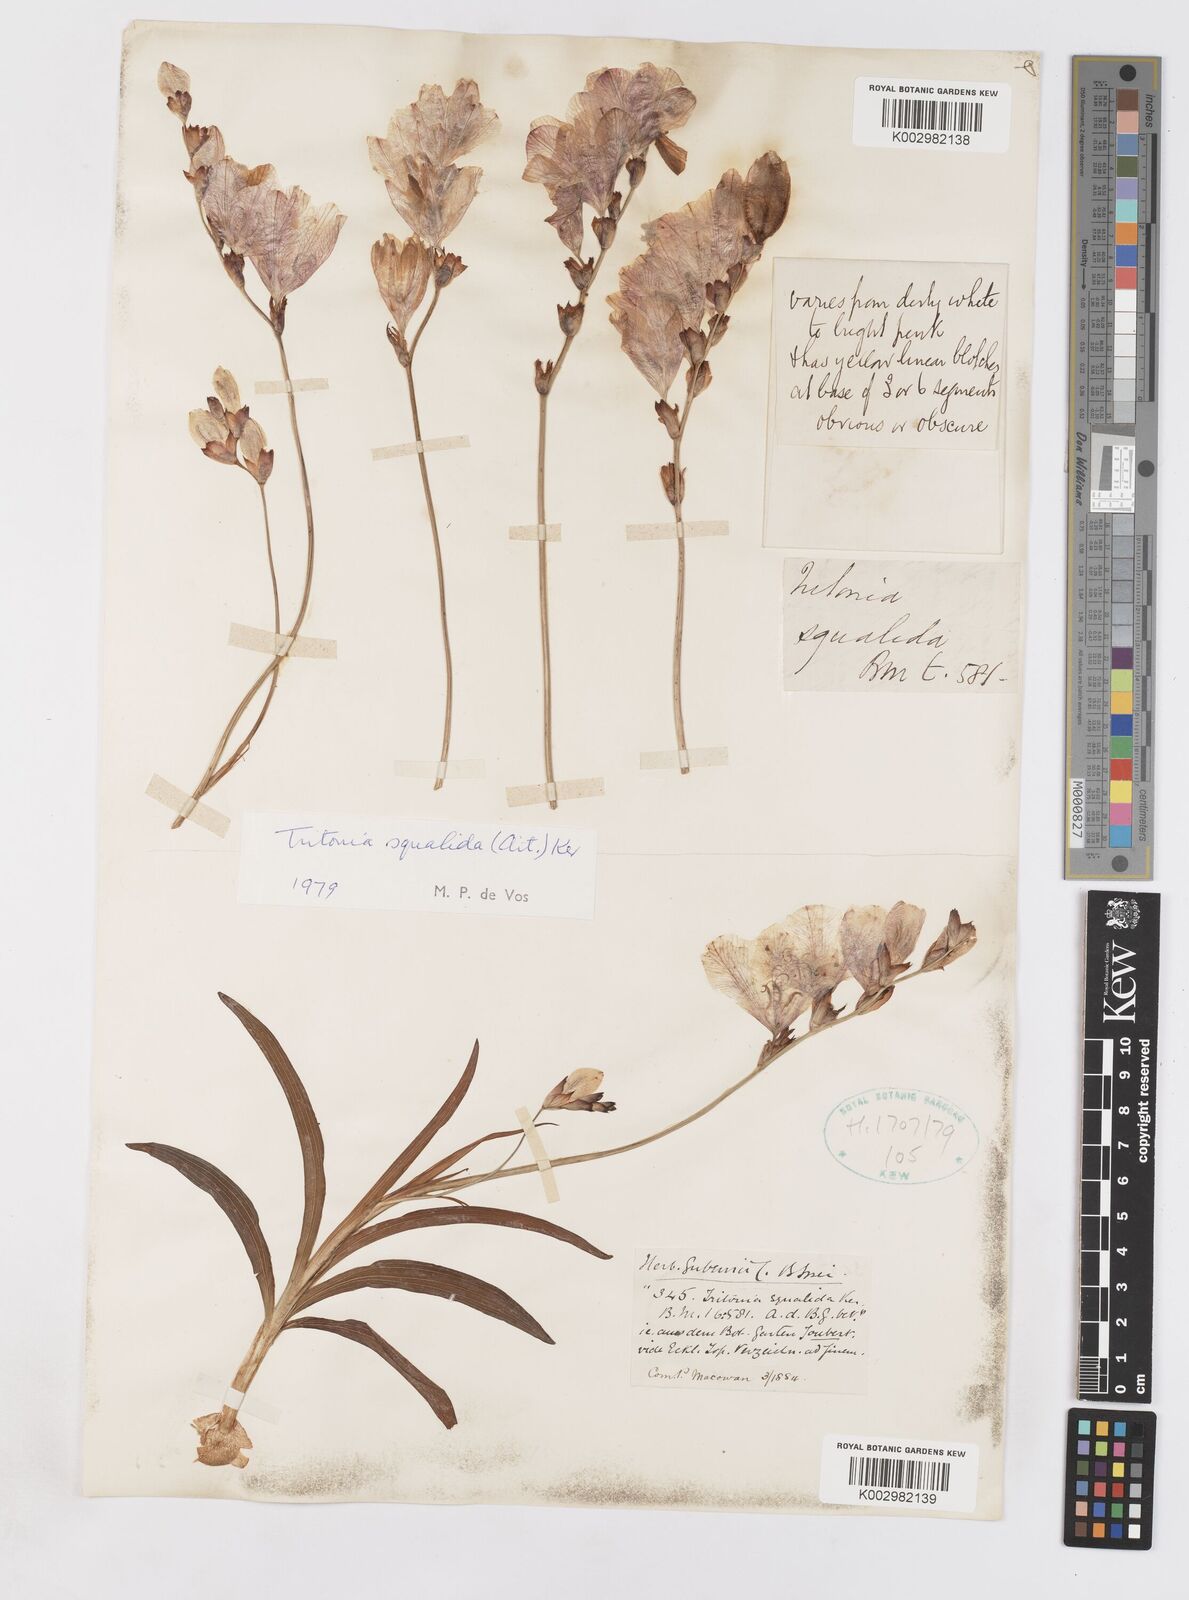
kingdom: Plantae
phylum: Tracheophyta
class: Liliopsida
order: Asparagales
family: Iridaceae
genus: Tritonia
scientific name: Tritonia squalida
